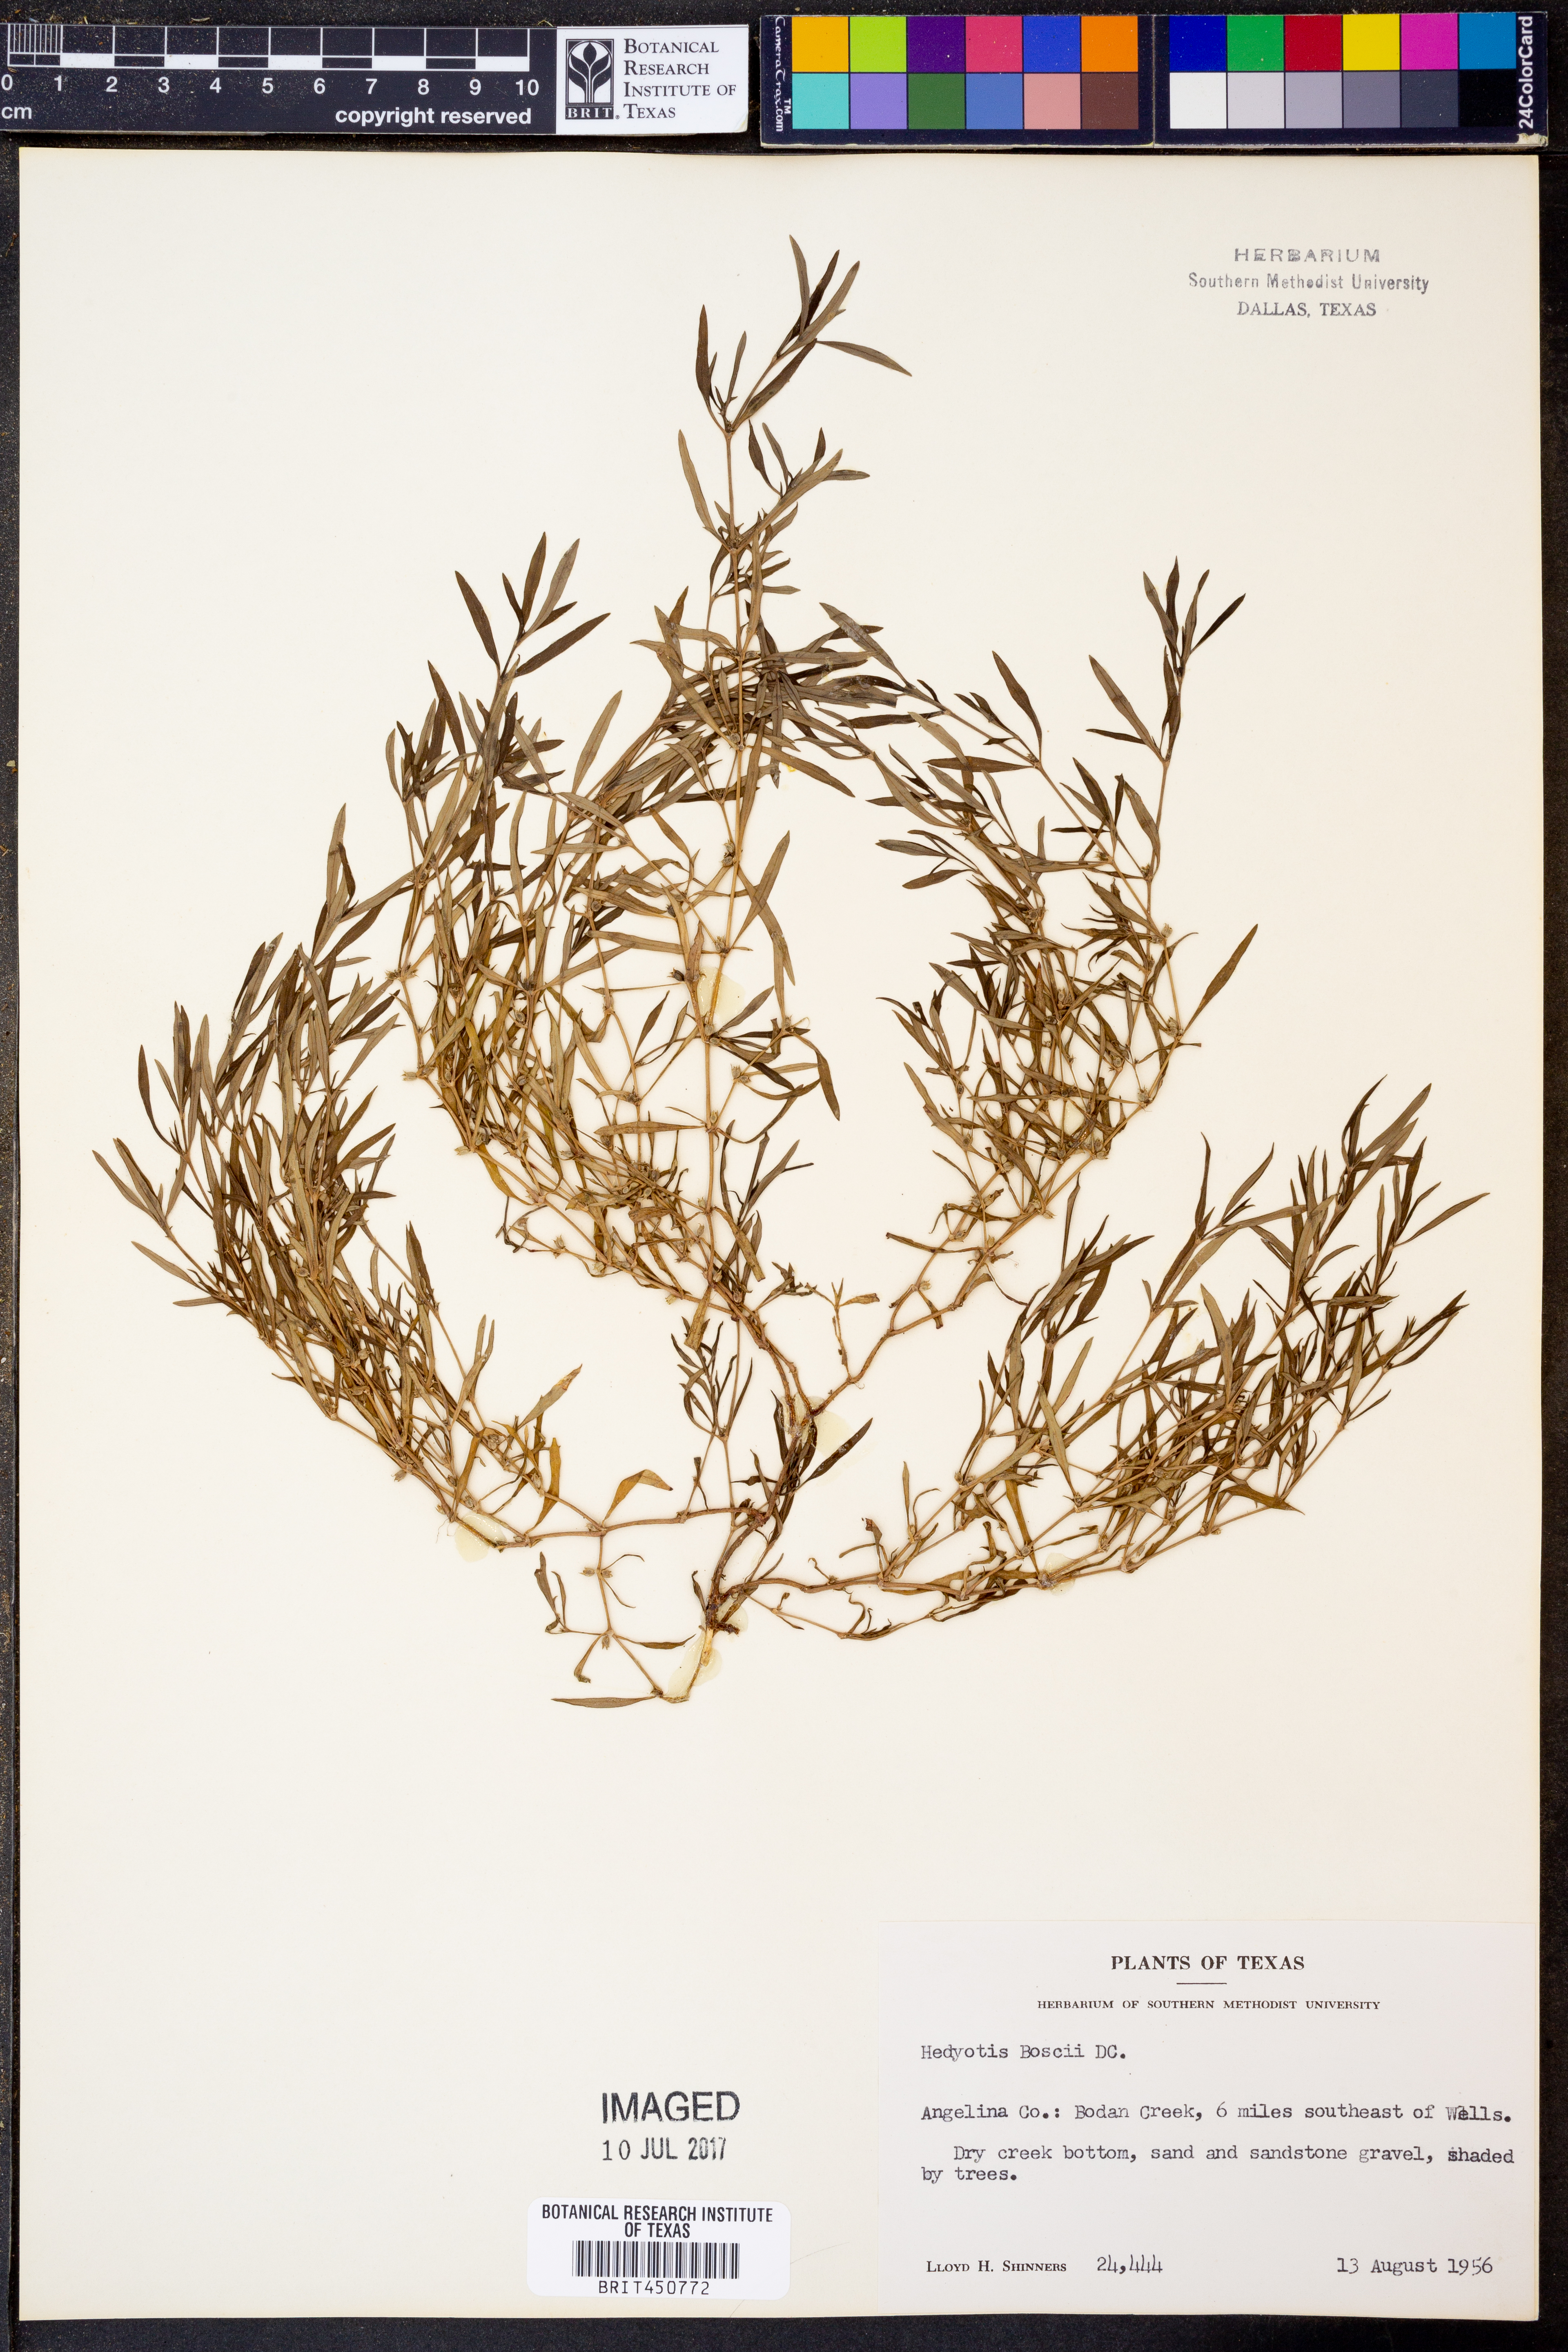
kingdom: Plantae
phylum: Tracheophyta
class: Magnoliopsida
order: Gentianales
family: Rubiaceae
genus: Oldenlandia
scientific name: Oldenlandia boscii
